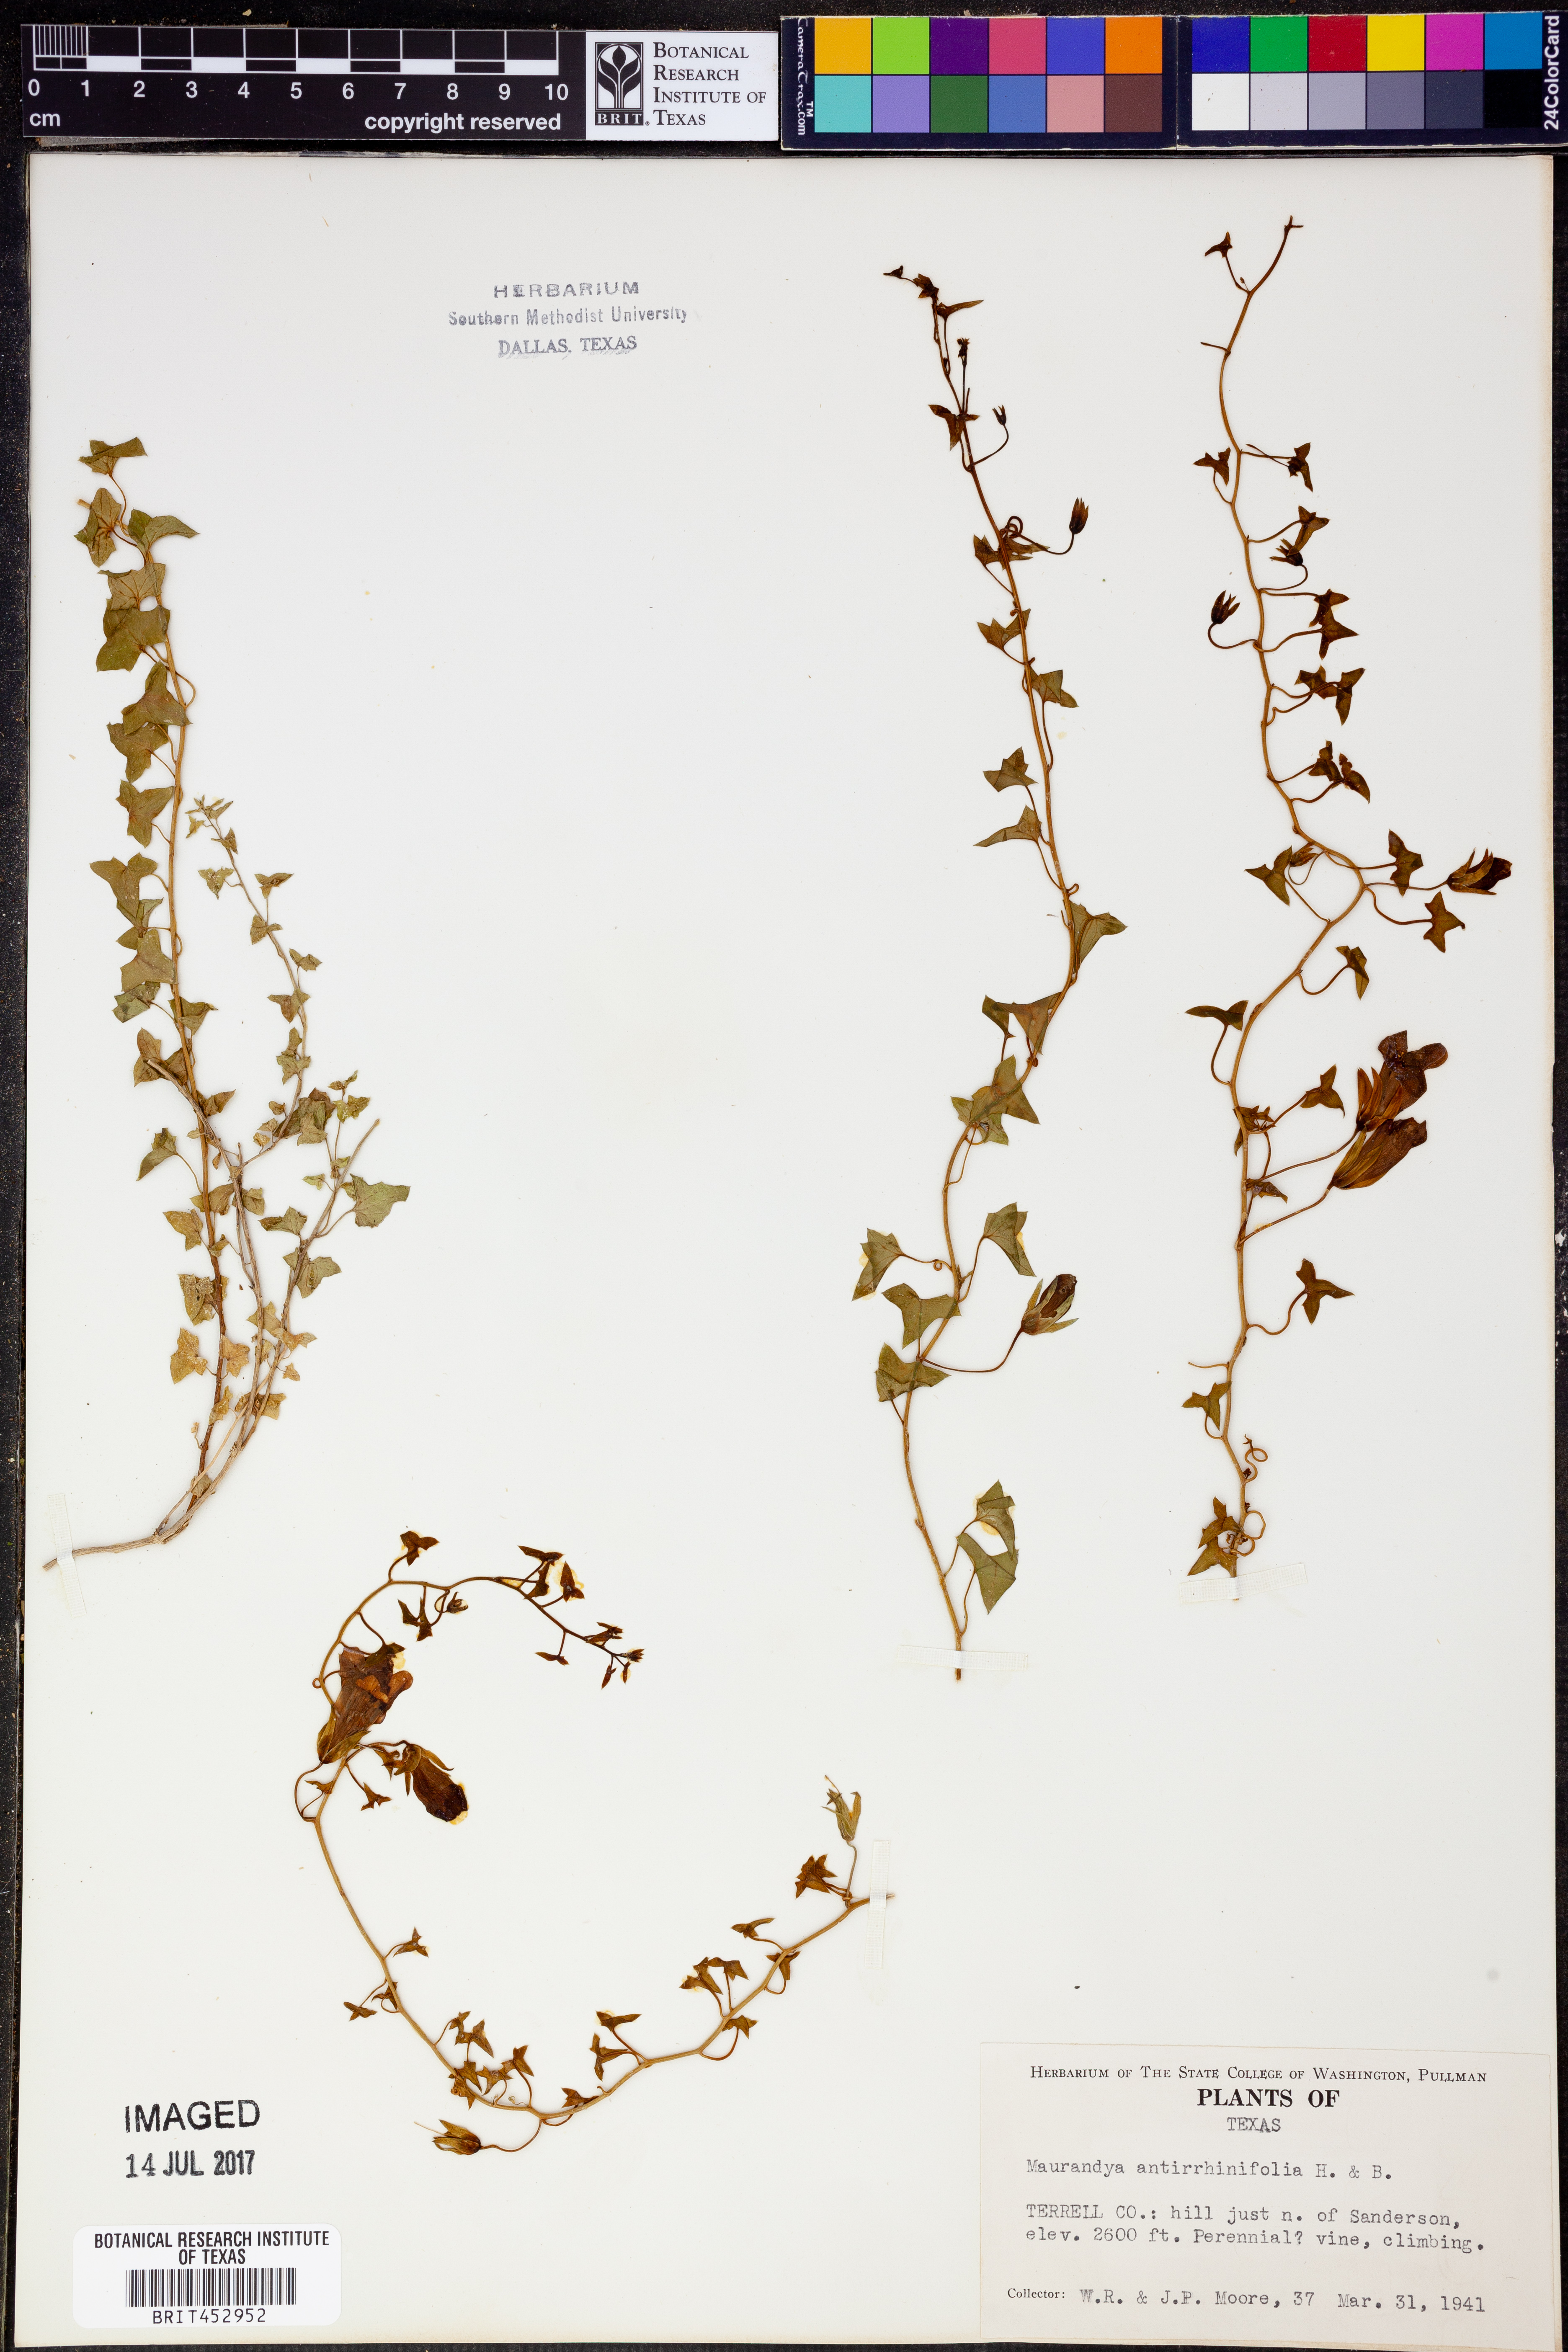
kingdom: Plantae
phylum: Tracheophyta
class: Magnoliopsida
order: Lamiales
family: Plantaginaceae
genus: Maurandella
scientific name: Maurandella antirrhiniflora
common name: Violet twining-snapdragon
